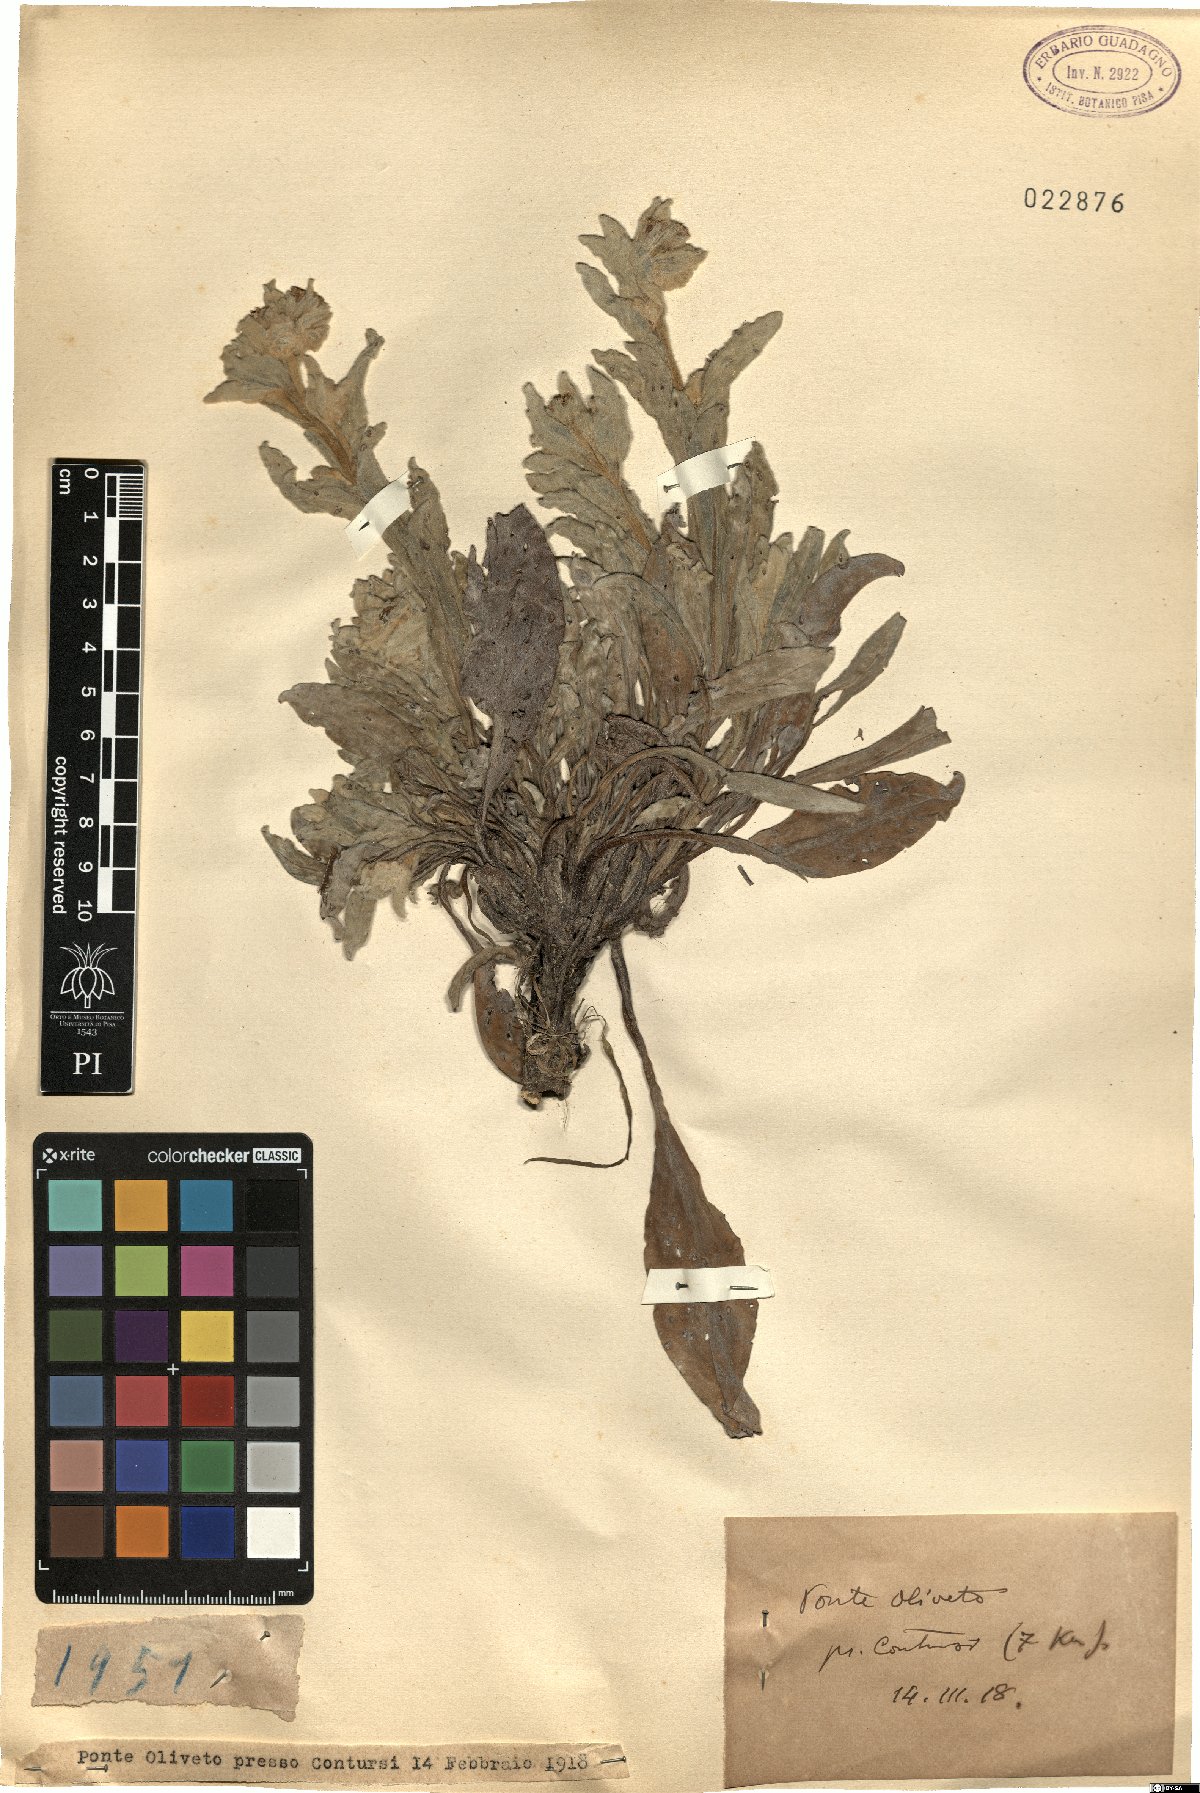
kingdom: Plantae
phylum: Tracheophyta
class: Magnoliopsida
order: Boraginales
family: Boraginaceae
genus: Cynoglossum
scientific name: Cynoglossum
